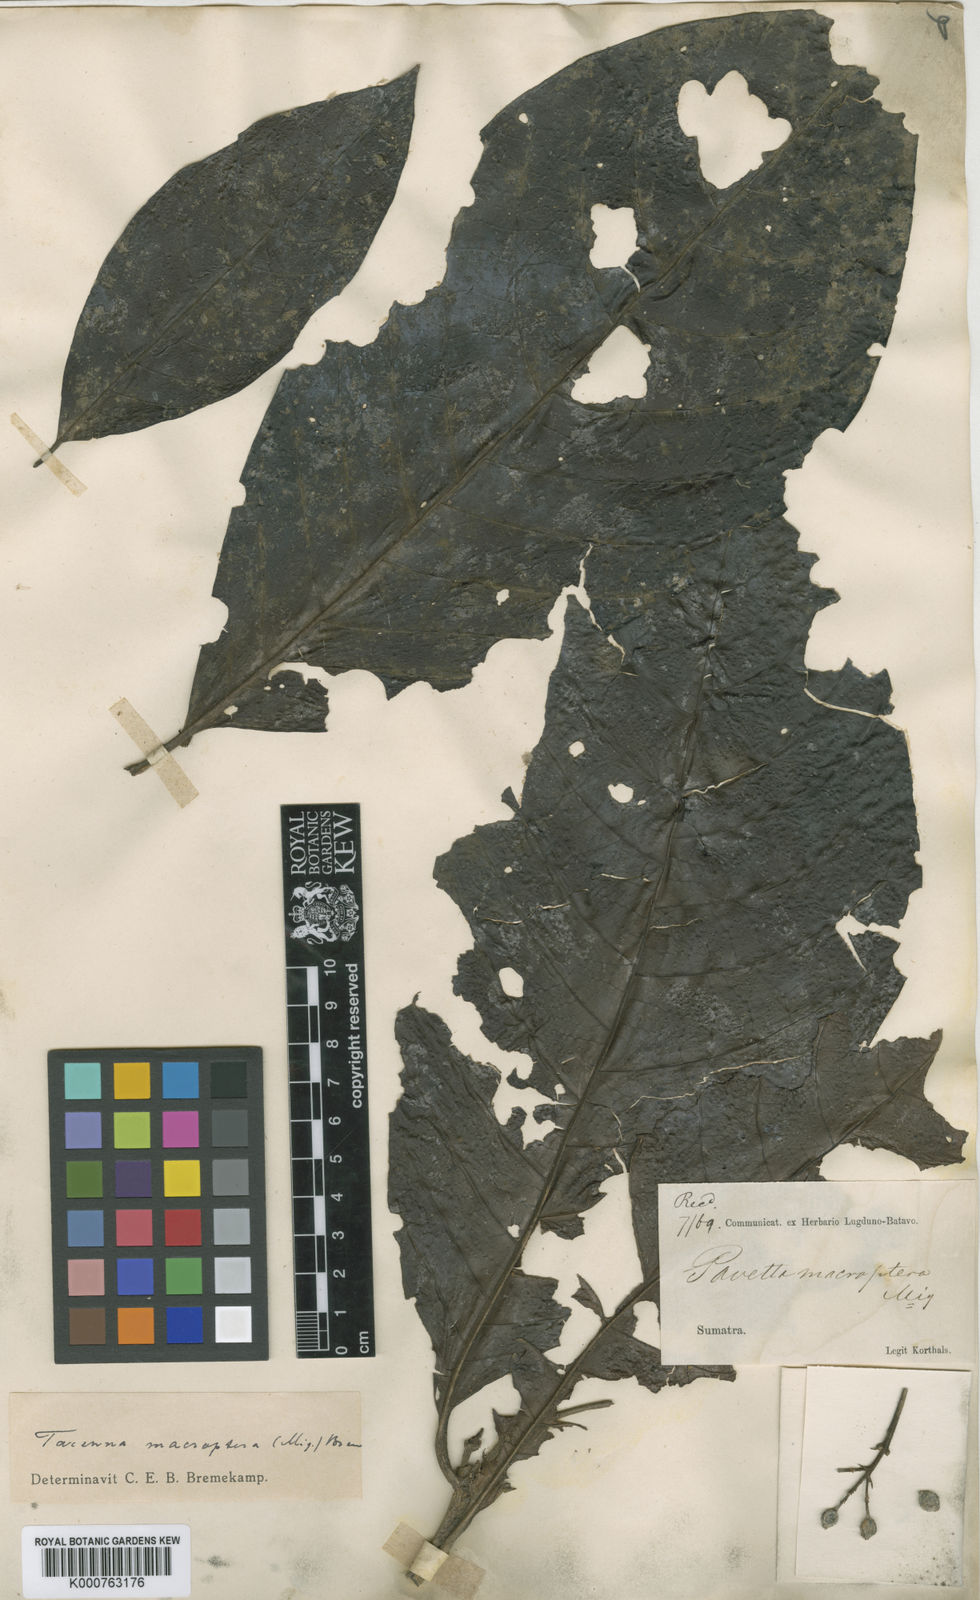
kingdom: Plantae
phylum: Tracheophyta
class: Magnoliopsida
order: Gentianales
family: Rubiaceae
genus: Tarenna
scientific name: Tarenna macroptera
